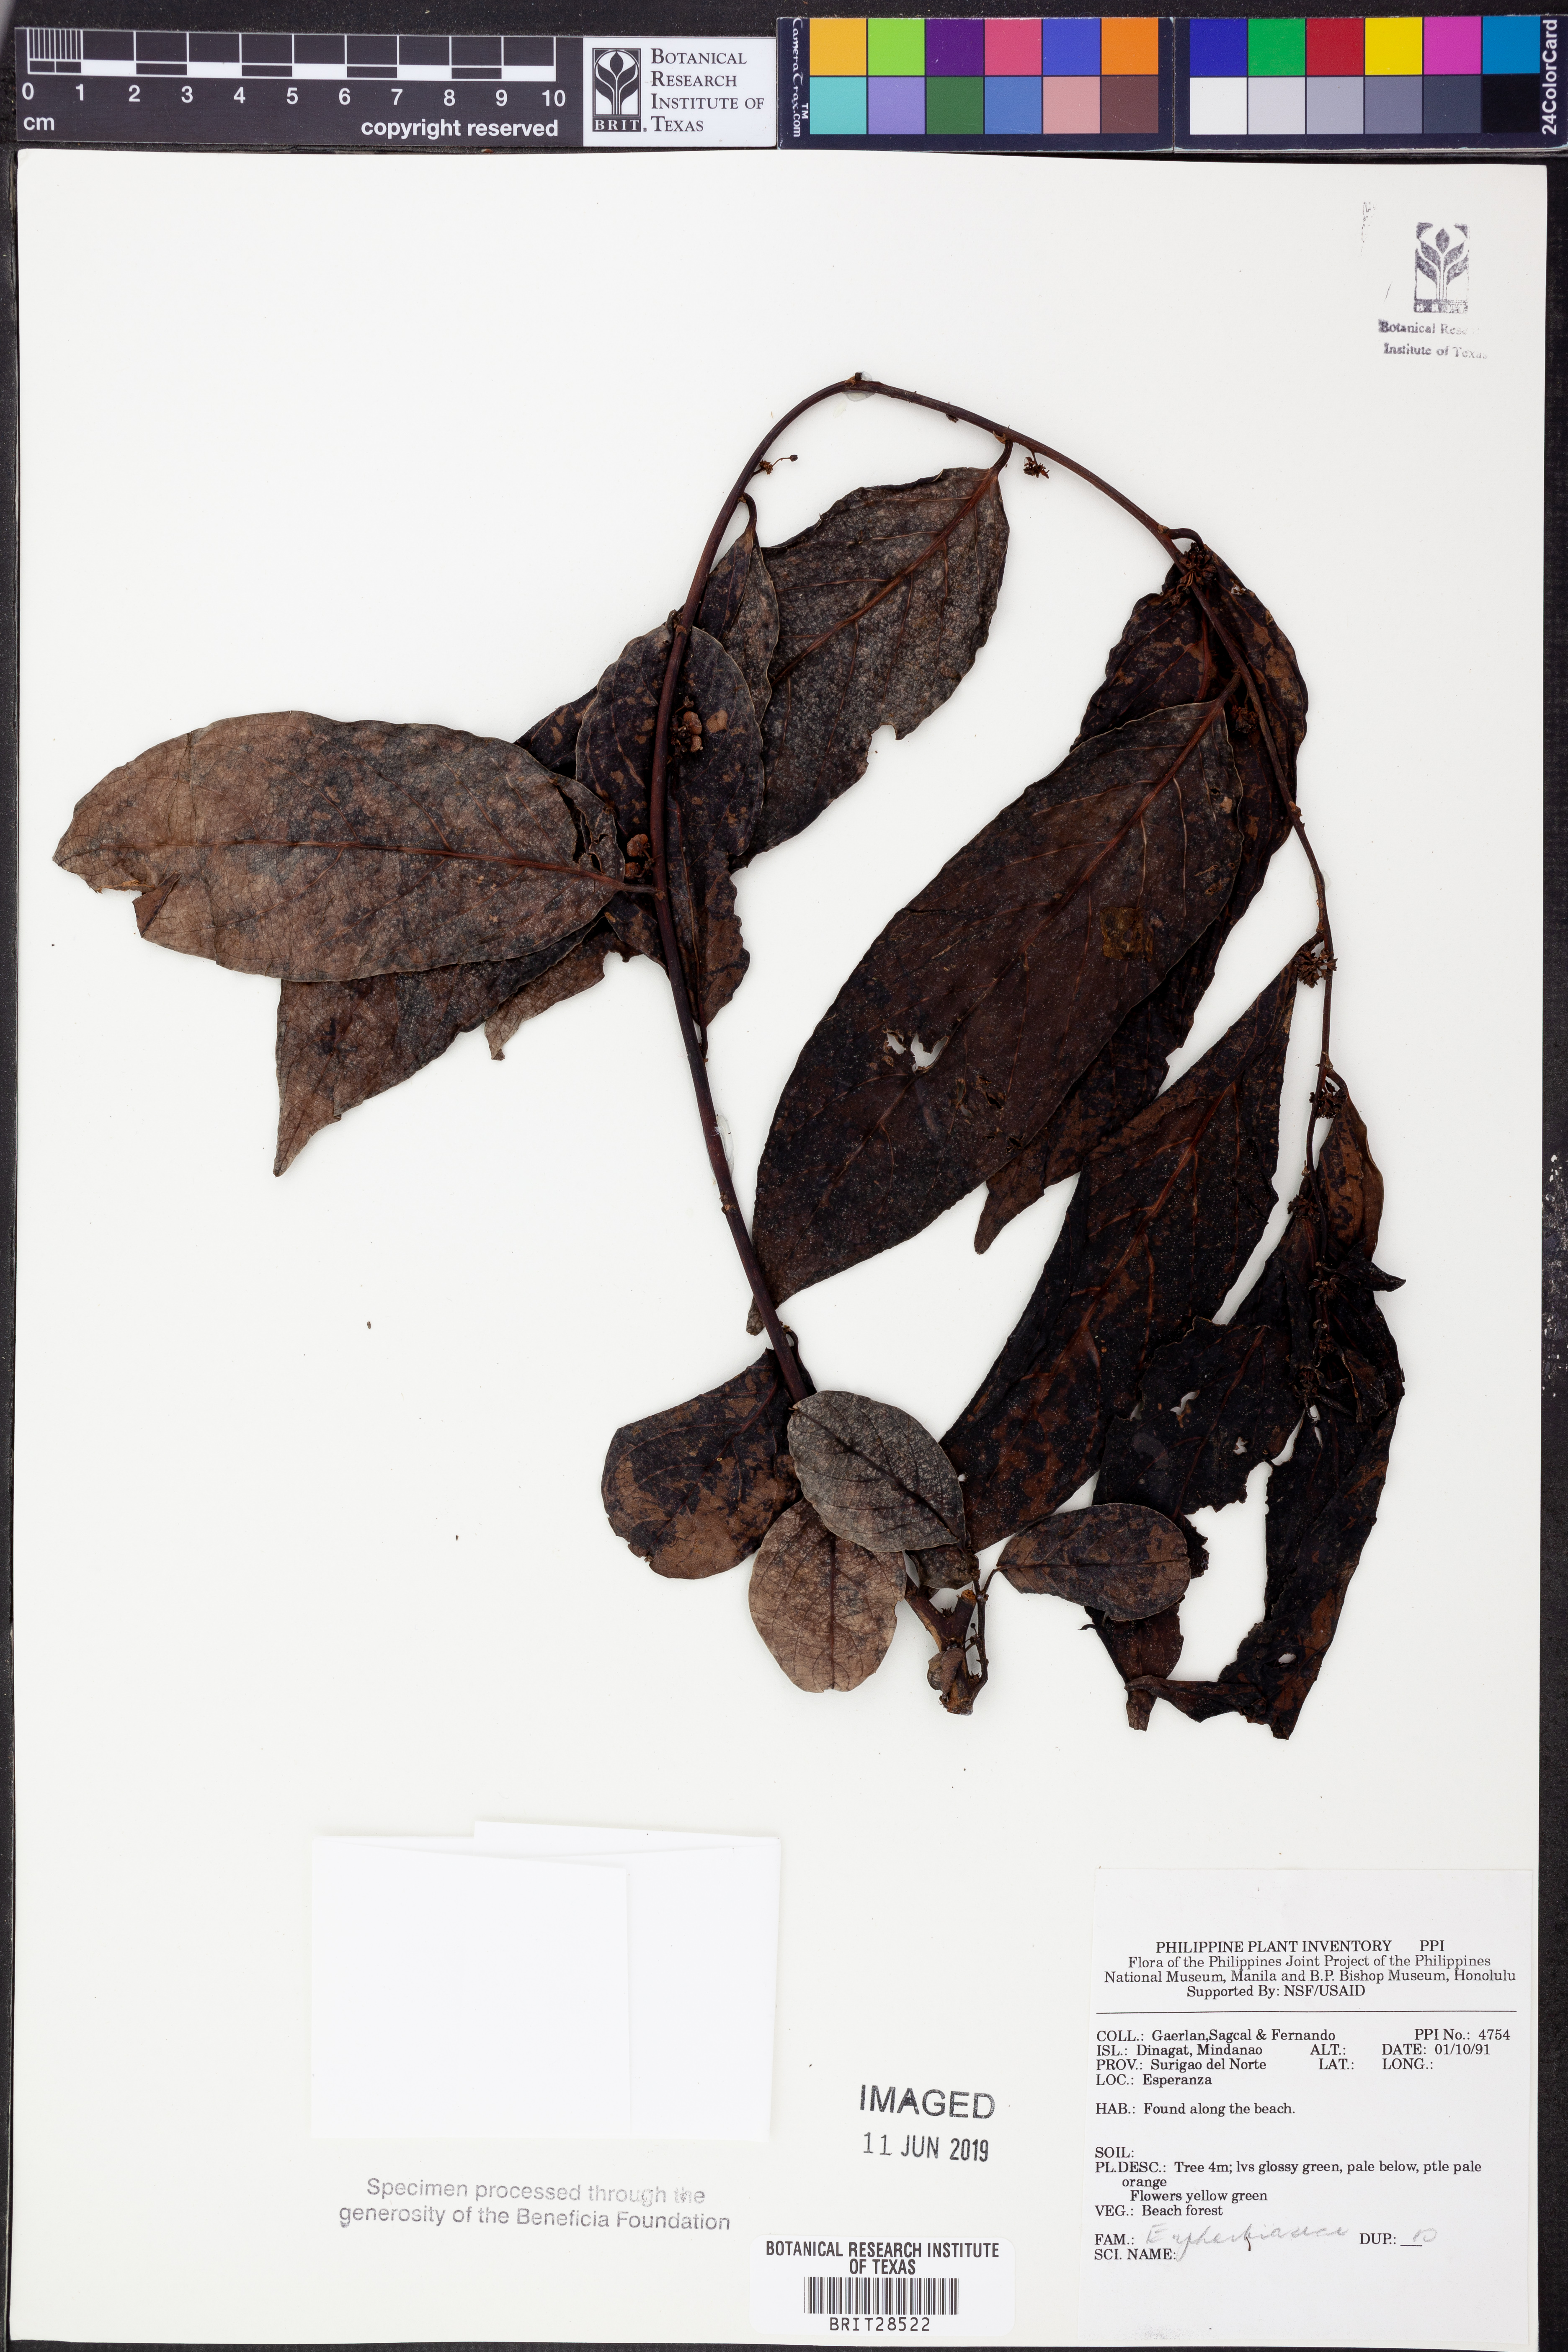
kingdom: Plantae
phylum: Tracheophyta
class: Magnoliopsida
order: Malpighiales
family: Euphorbiaceae
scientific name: Euphorbiaceae
